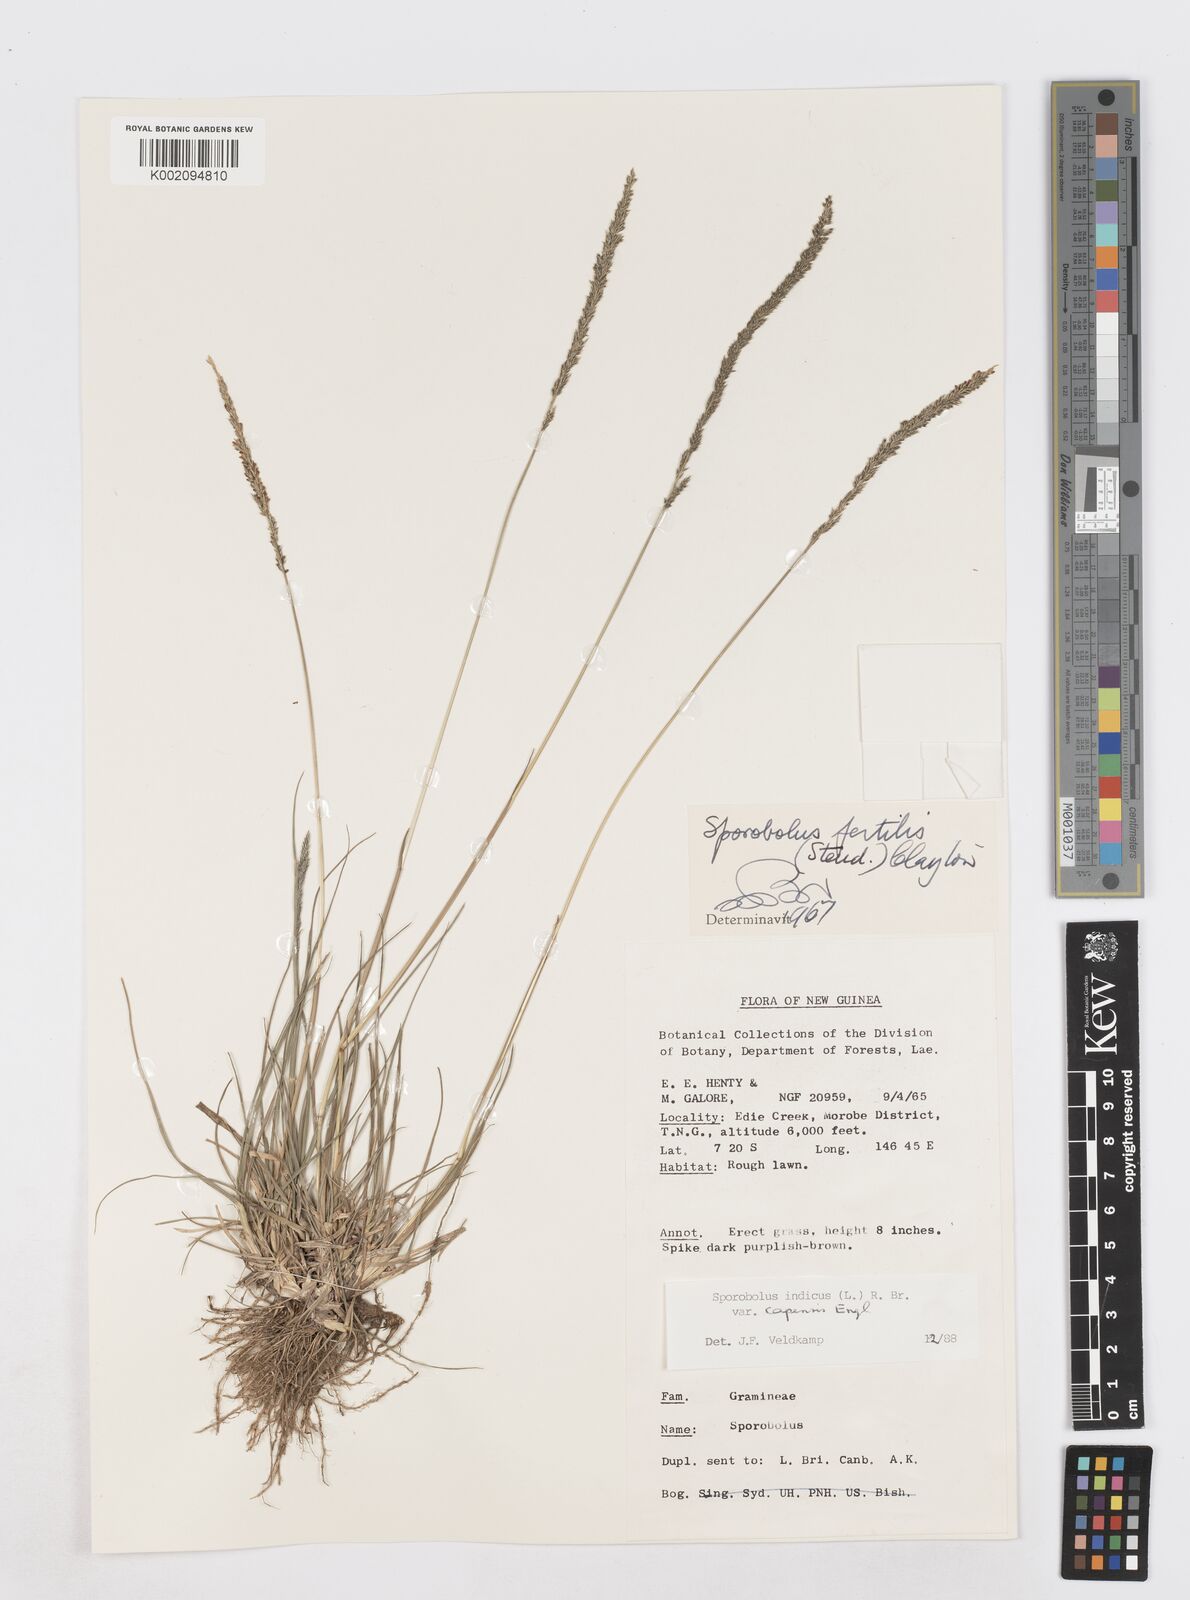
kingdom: Plantae
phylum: Tracheophyta
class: Liliopsida
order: Poales
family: Poaceae
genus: Sporobolus
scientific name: Sporobolus fertilis
